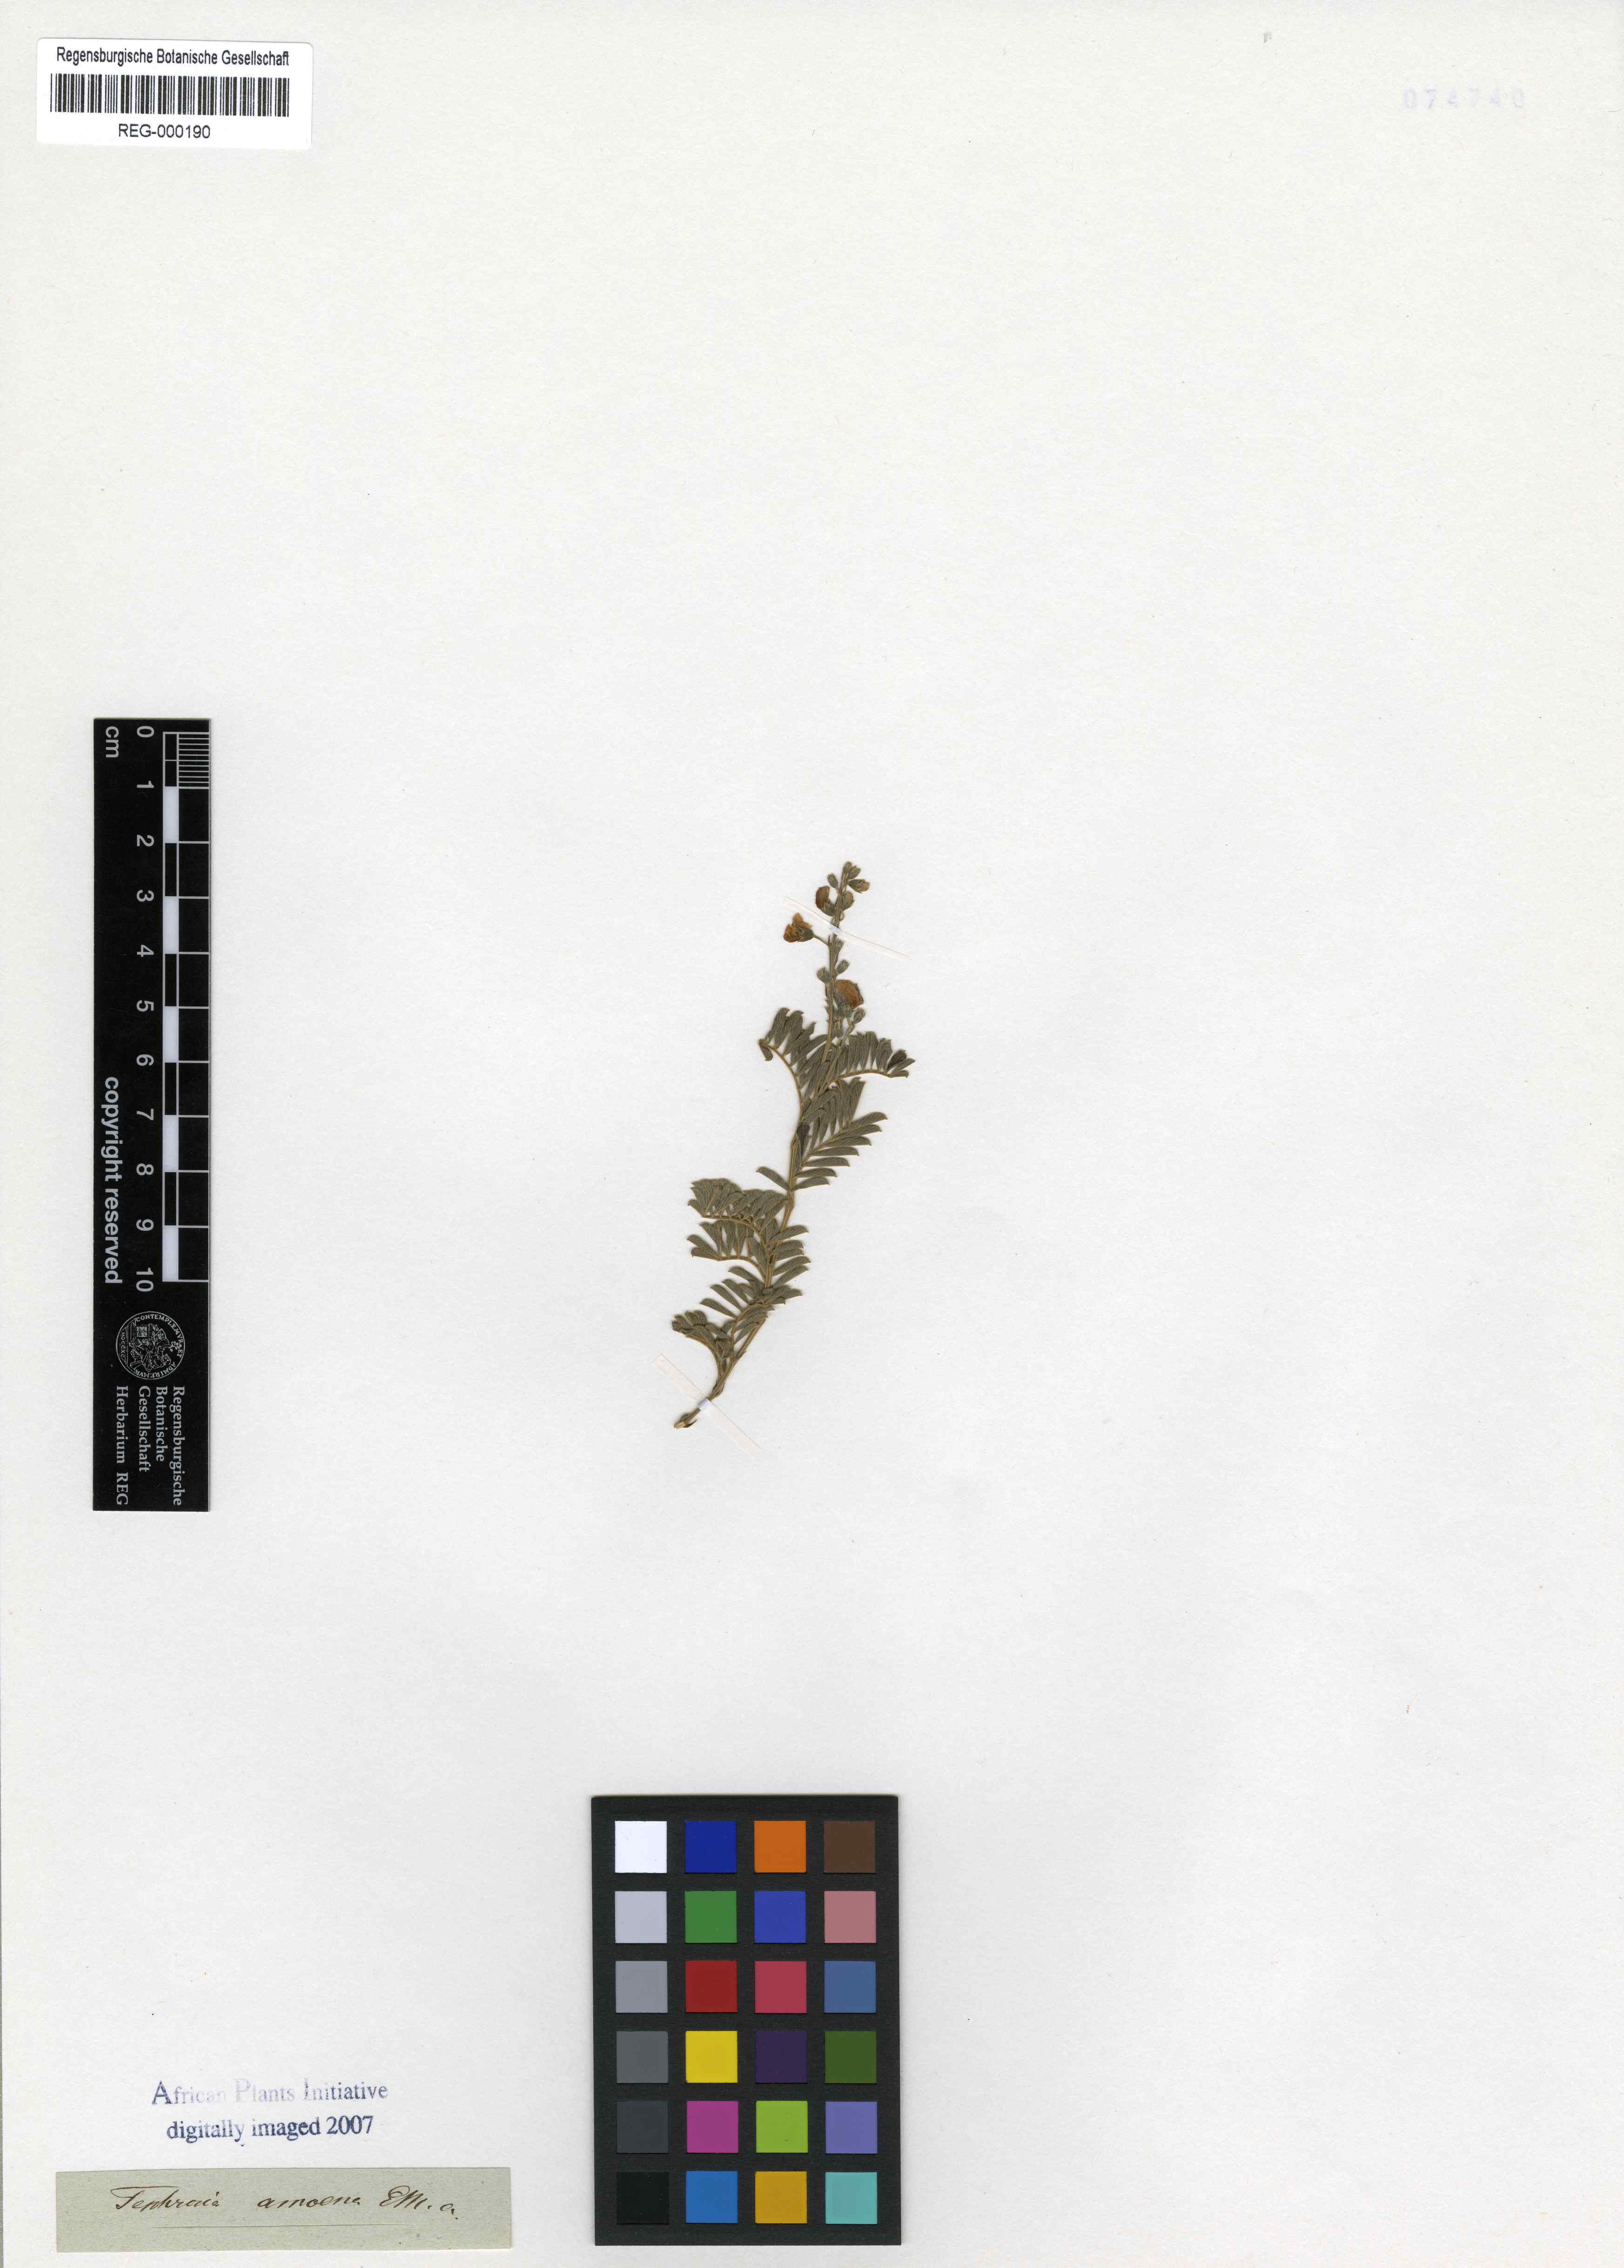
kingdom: Plantae
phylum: Tracheophyta
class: Magnoliopsida
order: Fabales
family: Fabaceae
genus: Tephrosia
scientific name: Tephrosia amoena
